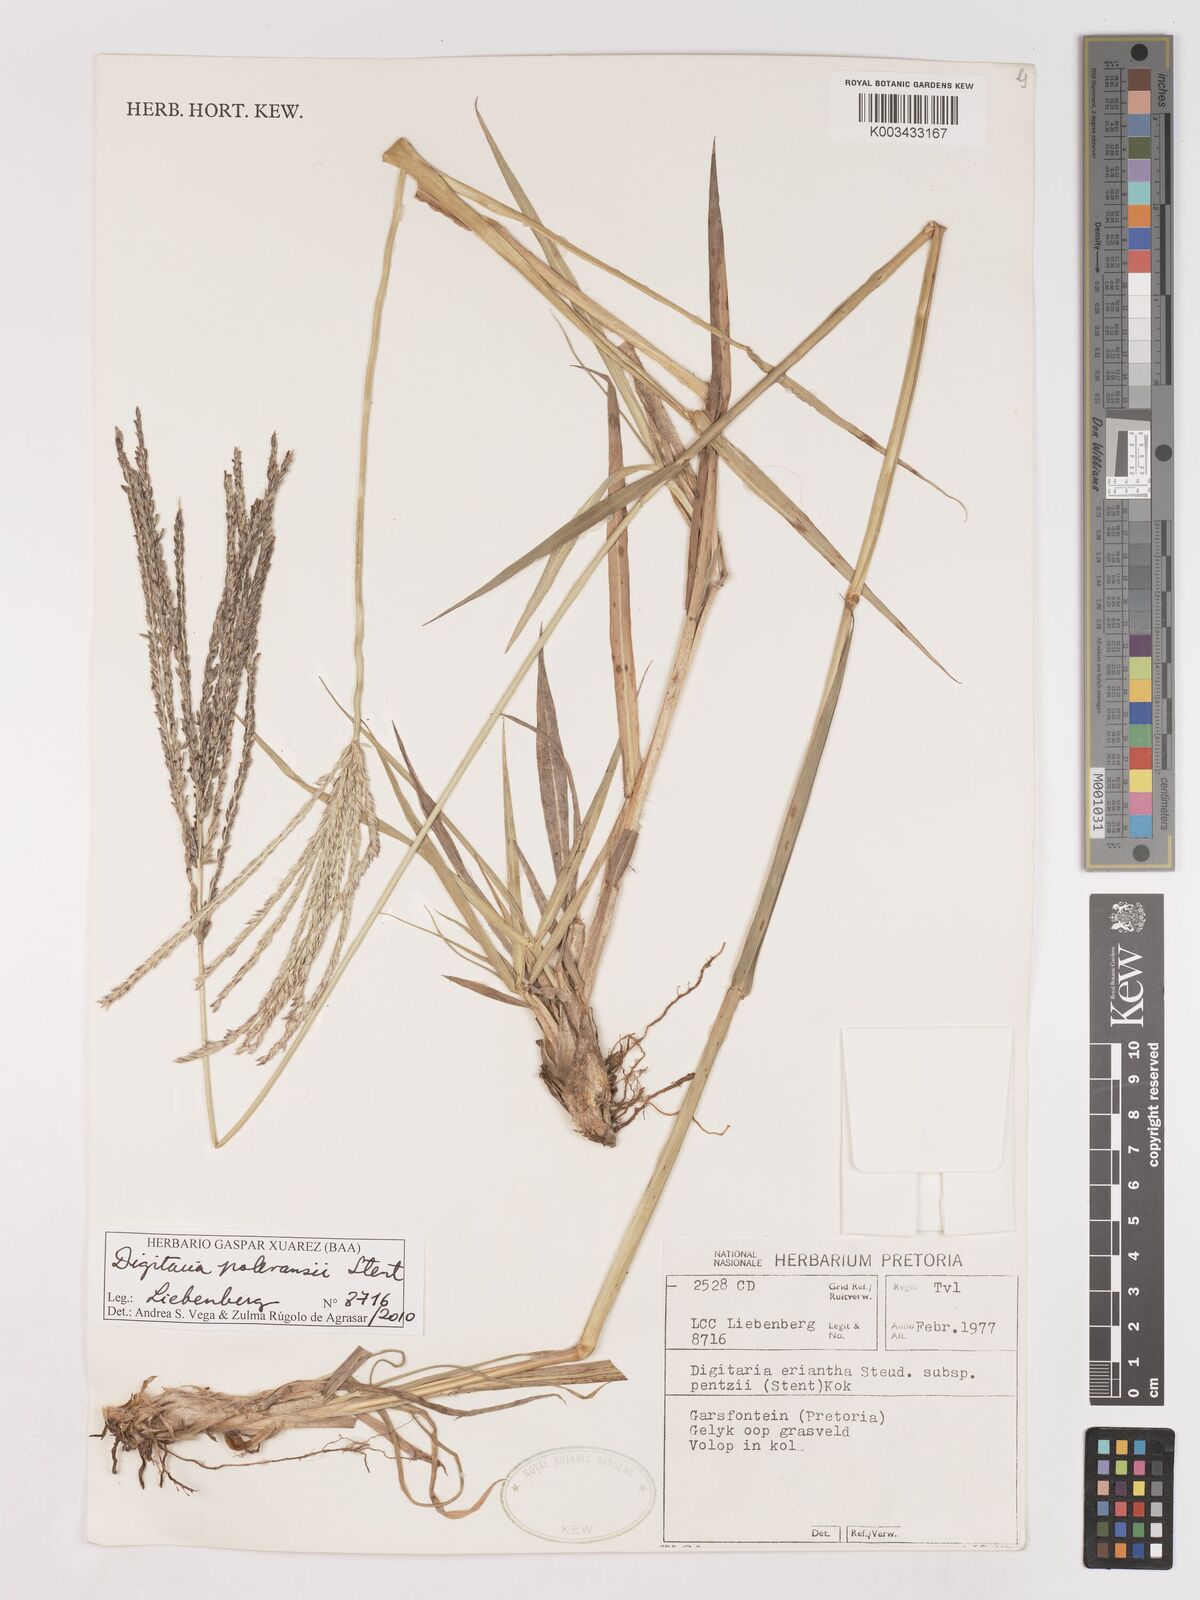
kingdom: Plantae
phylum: Tracheophyta
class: Liliopsida
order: Poales
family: Poaceae
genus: Digitaria
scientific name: Digitaria milanjiana
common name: Madagascar crabgrass
